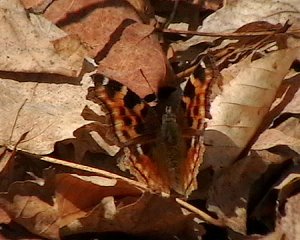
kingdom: Animalia
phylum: Arthropoda
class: Insecta
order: Lepidoptera
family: Nymphalidae
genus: Polygonia
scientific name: Polygonia vaualbum
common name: Compton Tortoiseshell
